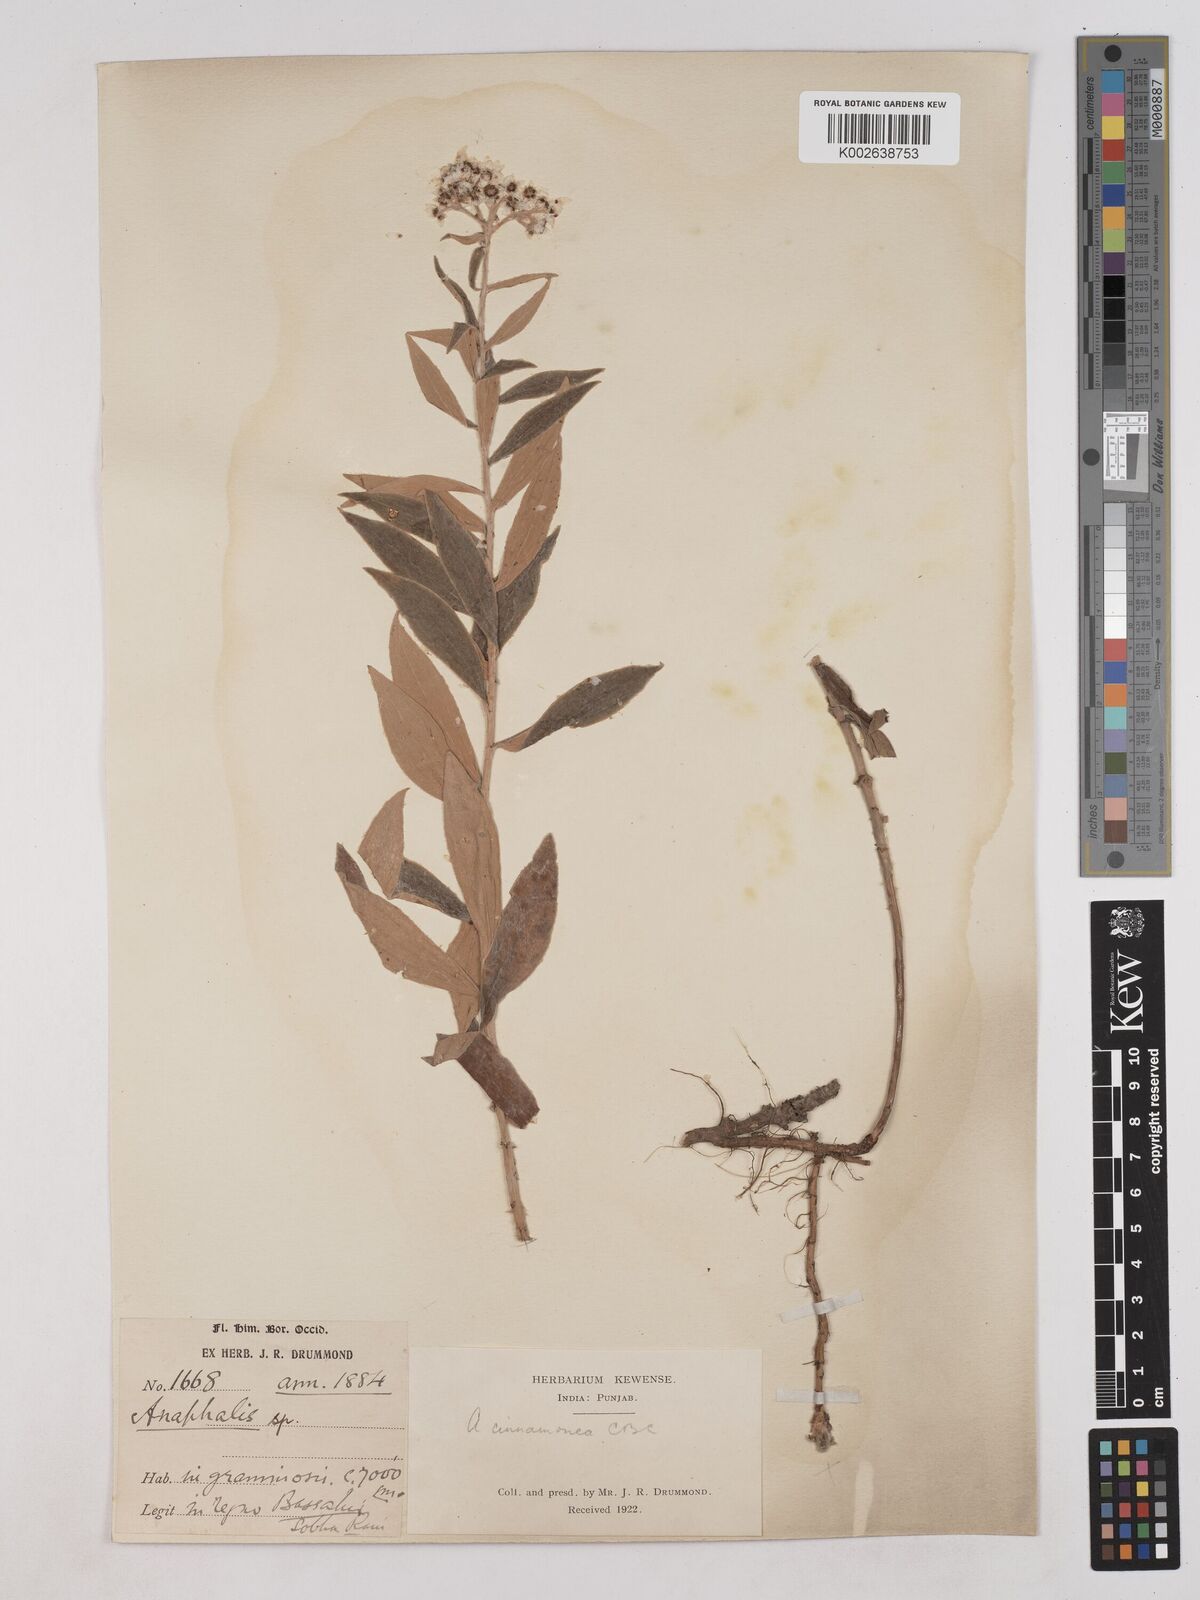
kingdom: Plantae
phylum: Tracheophyta
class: Magnoliopsida
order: Asterales
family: Asteraceae
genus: Anaphalis
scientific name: Anaphalis marcescens
